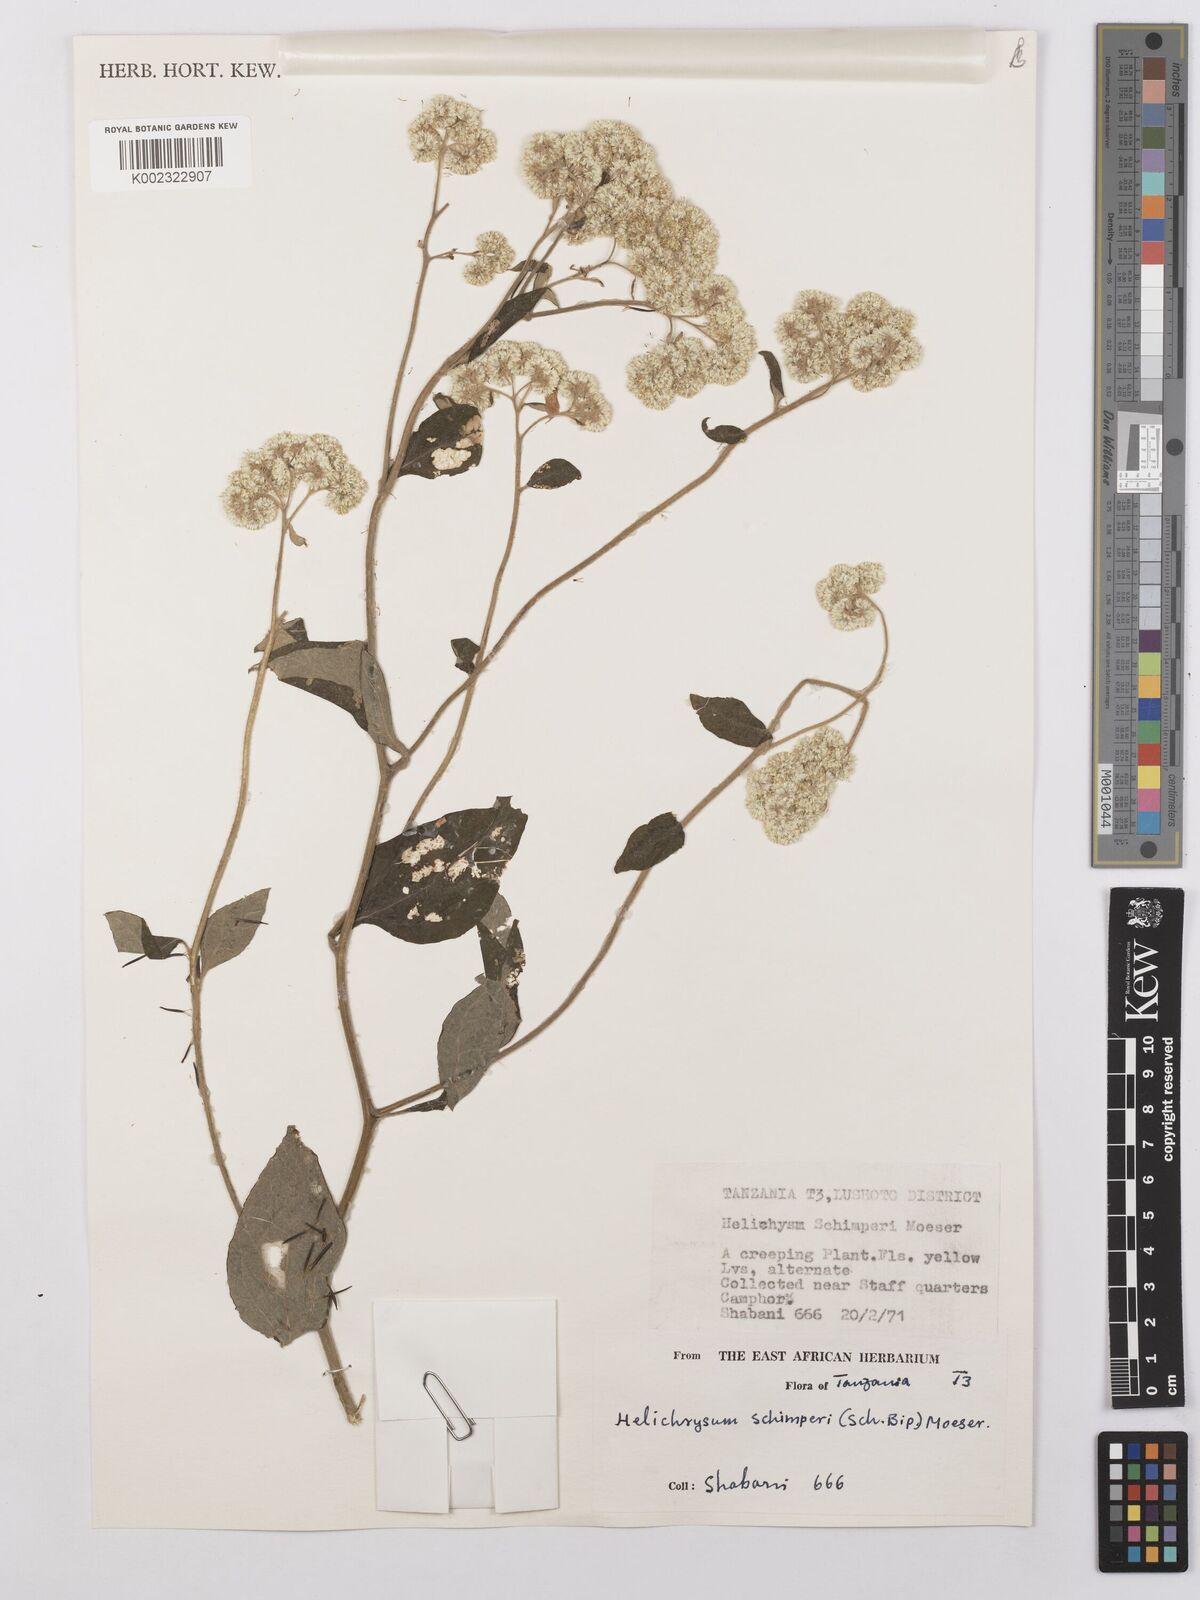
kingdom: Plantae
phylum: Tracheophyta
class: Magnoliopsida
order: Asterales
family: Asteraceae
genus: Helichrysum
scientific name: Helichrysum schimperi
